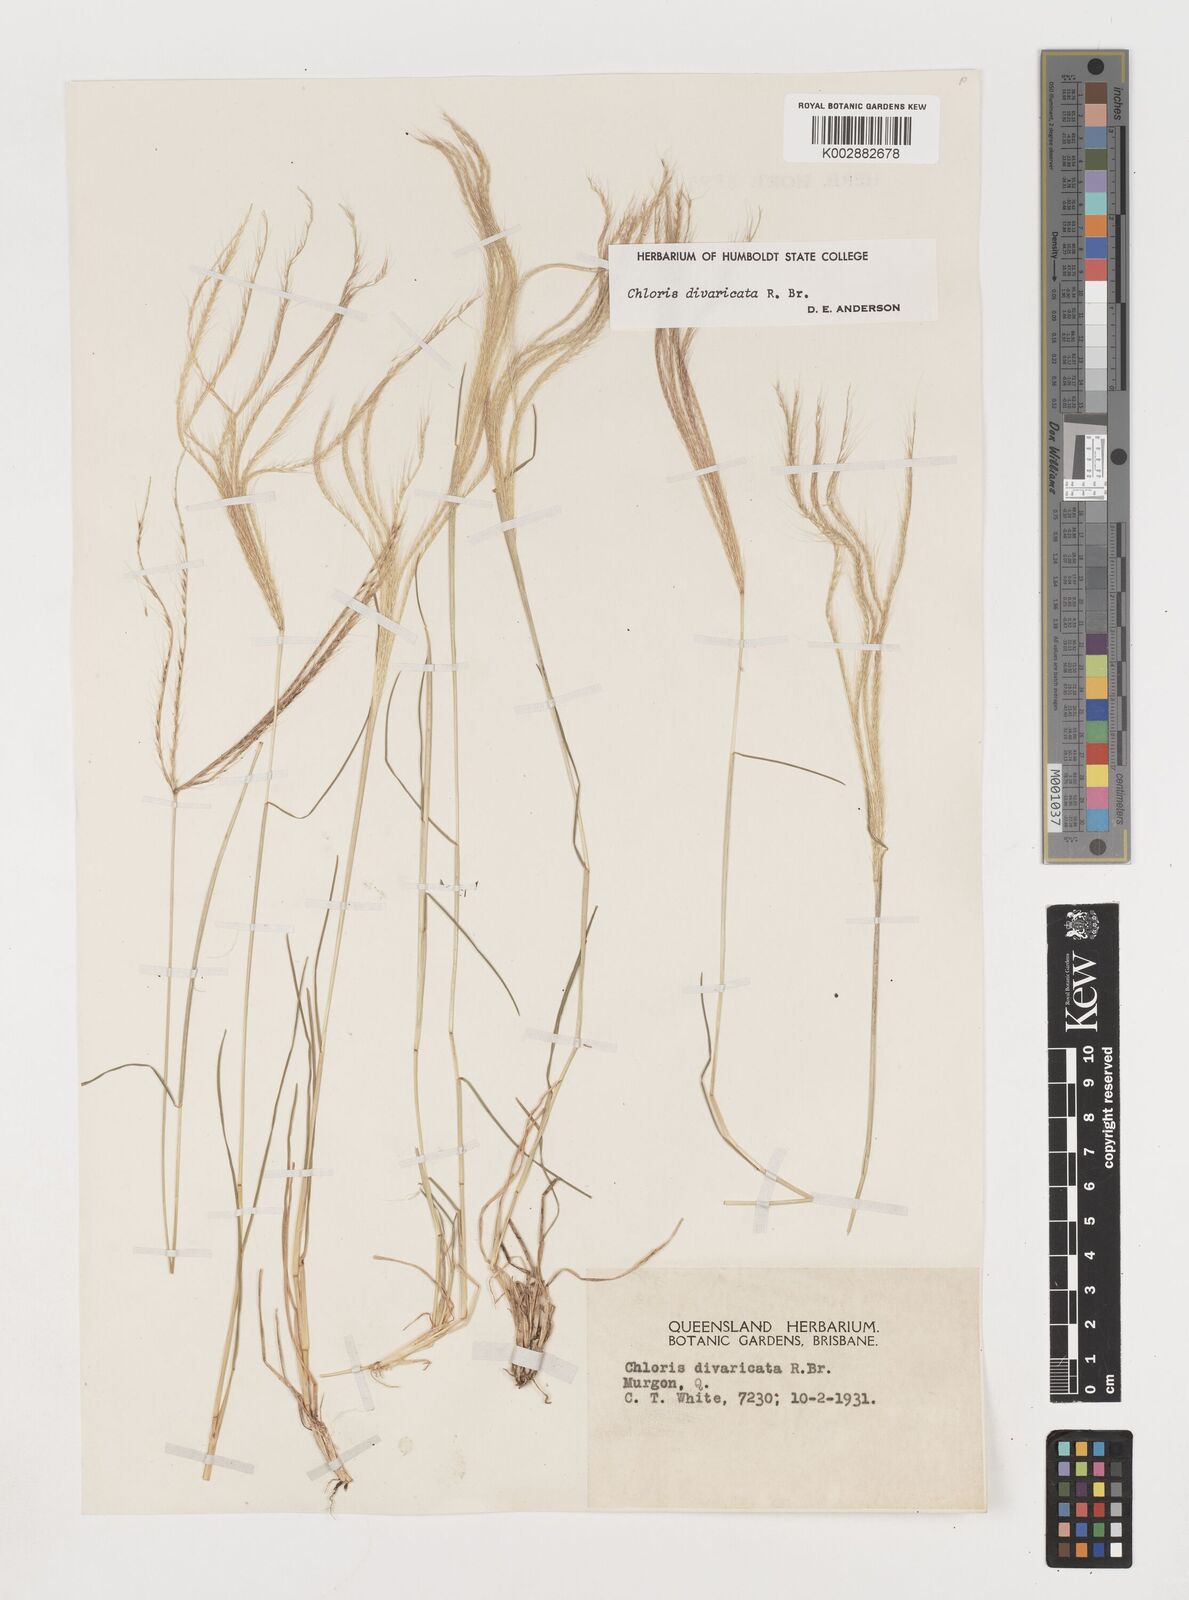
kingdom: Plantae
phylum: Tracheophyta
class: Liliopsida
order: Poales
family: Poaceae
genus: Chloris
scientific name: Chloris divaricata
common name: Spreading windmill grass
